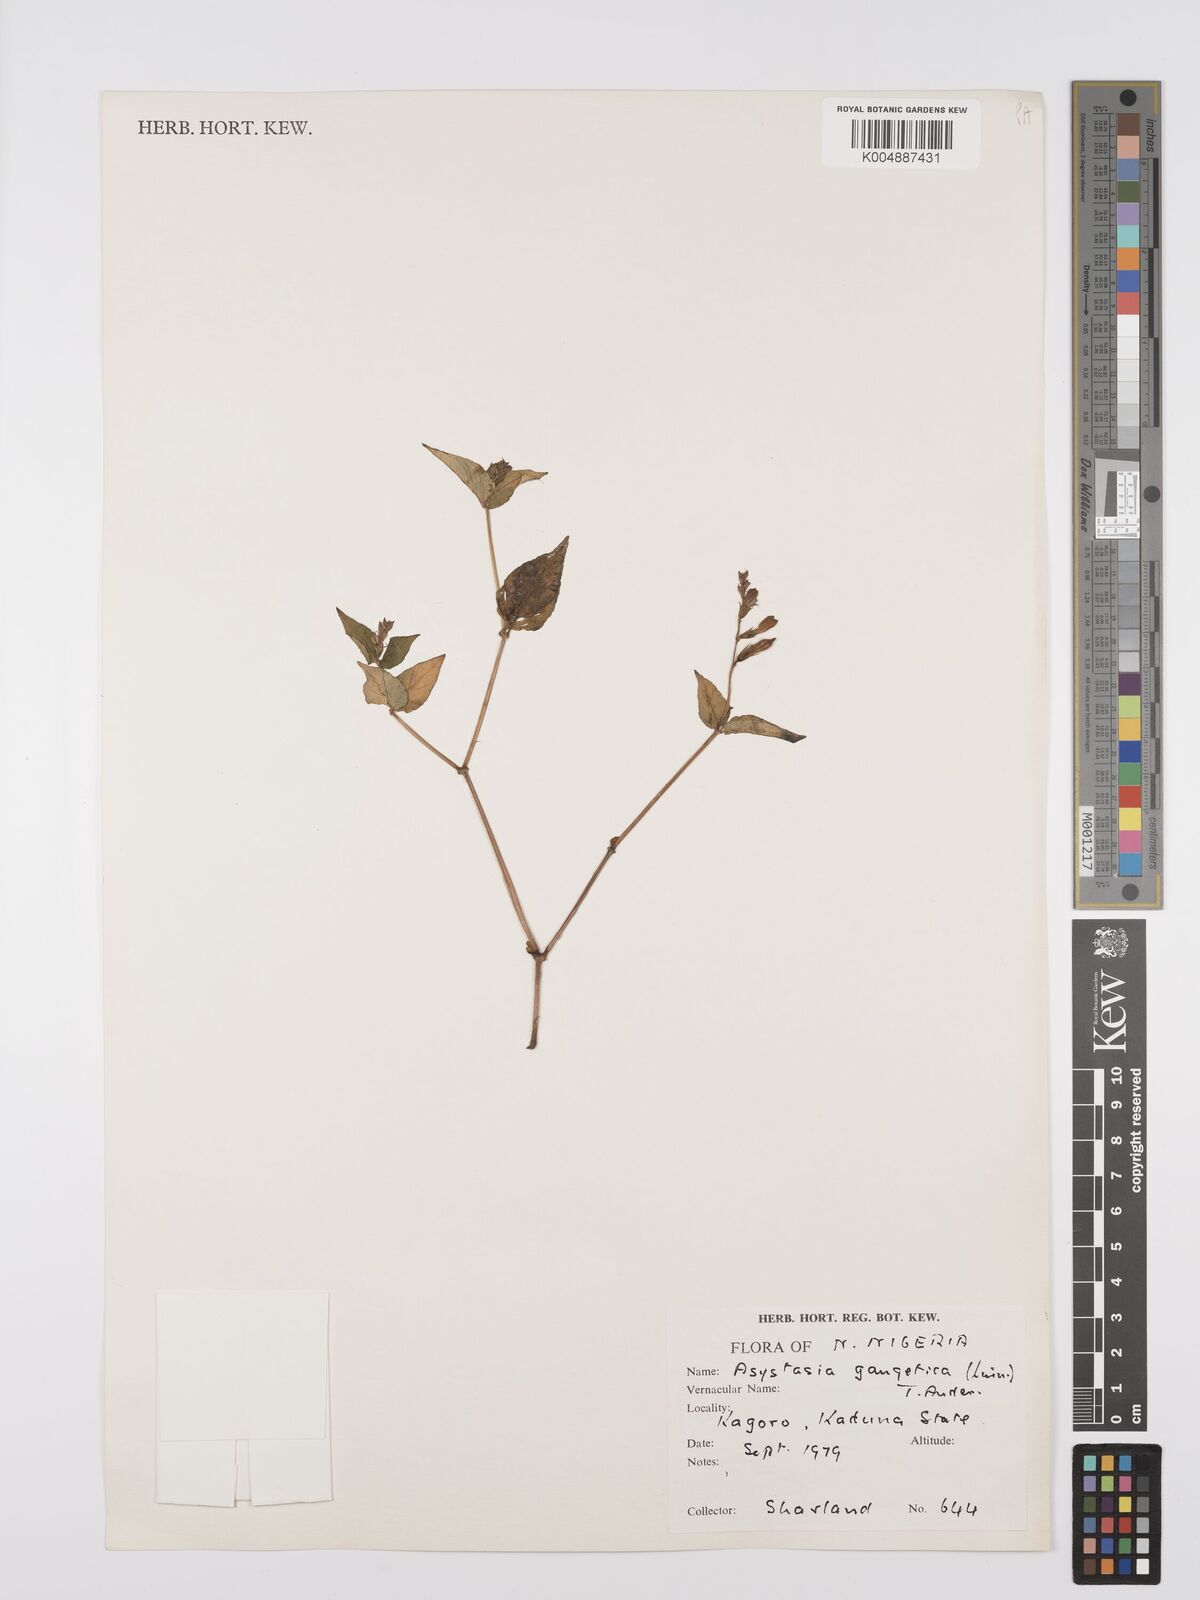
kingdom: Plantae
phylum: Tracheophyta
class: Magnoliopsida
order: Lamiales
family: Acanthaceae
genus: Asystasia
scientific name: Asystasia gangetica
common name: Chinese violet
